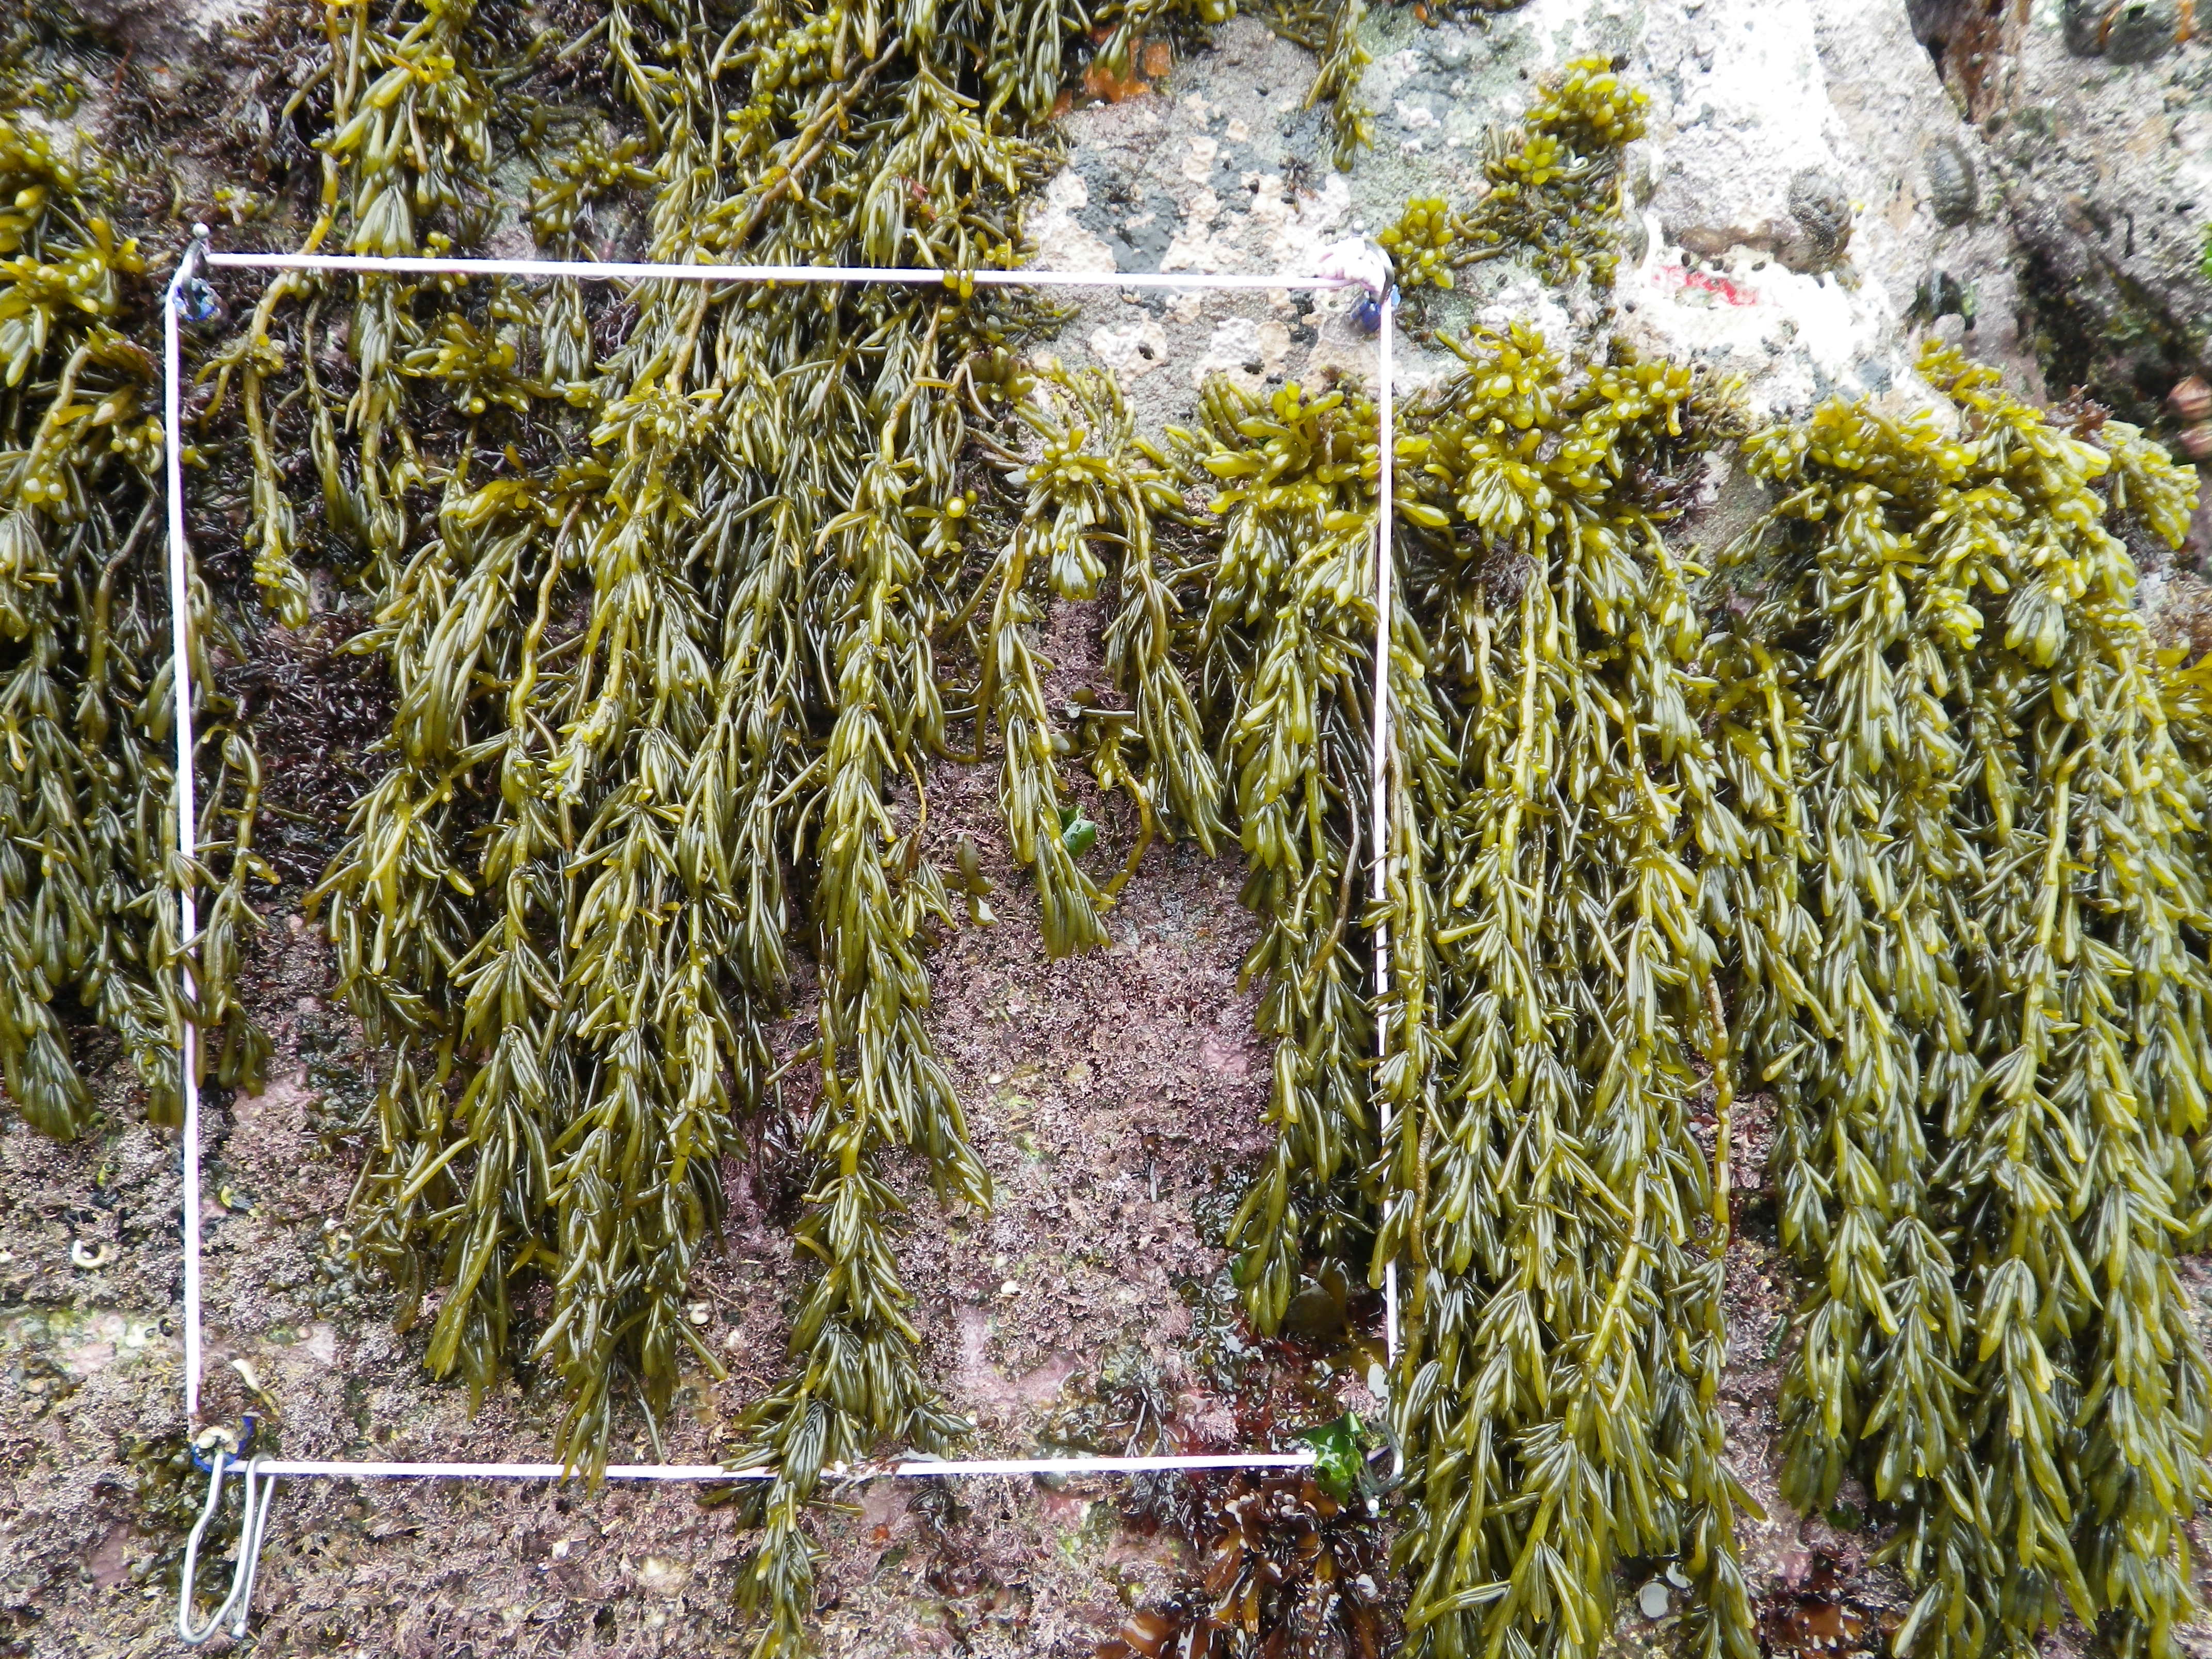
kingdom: Chromista
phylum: Ochrophyta
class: Phaeophyceae
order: Fucales
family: Sargassaceae
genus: Sargassum
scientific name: Sargassum fusiforme
